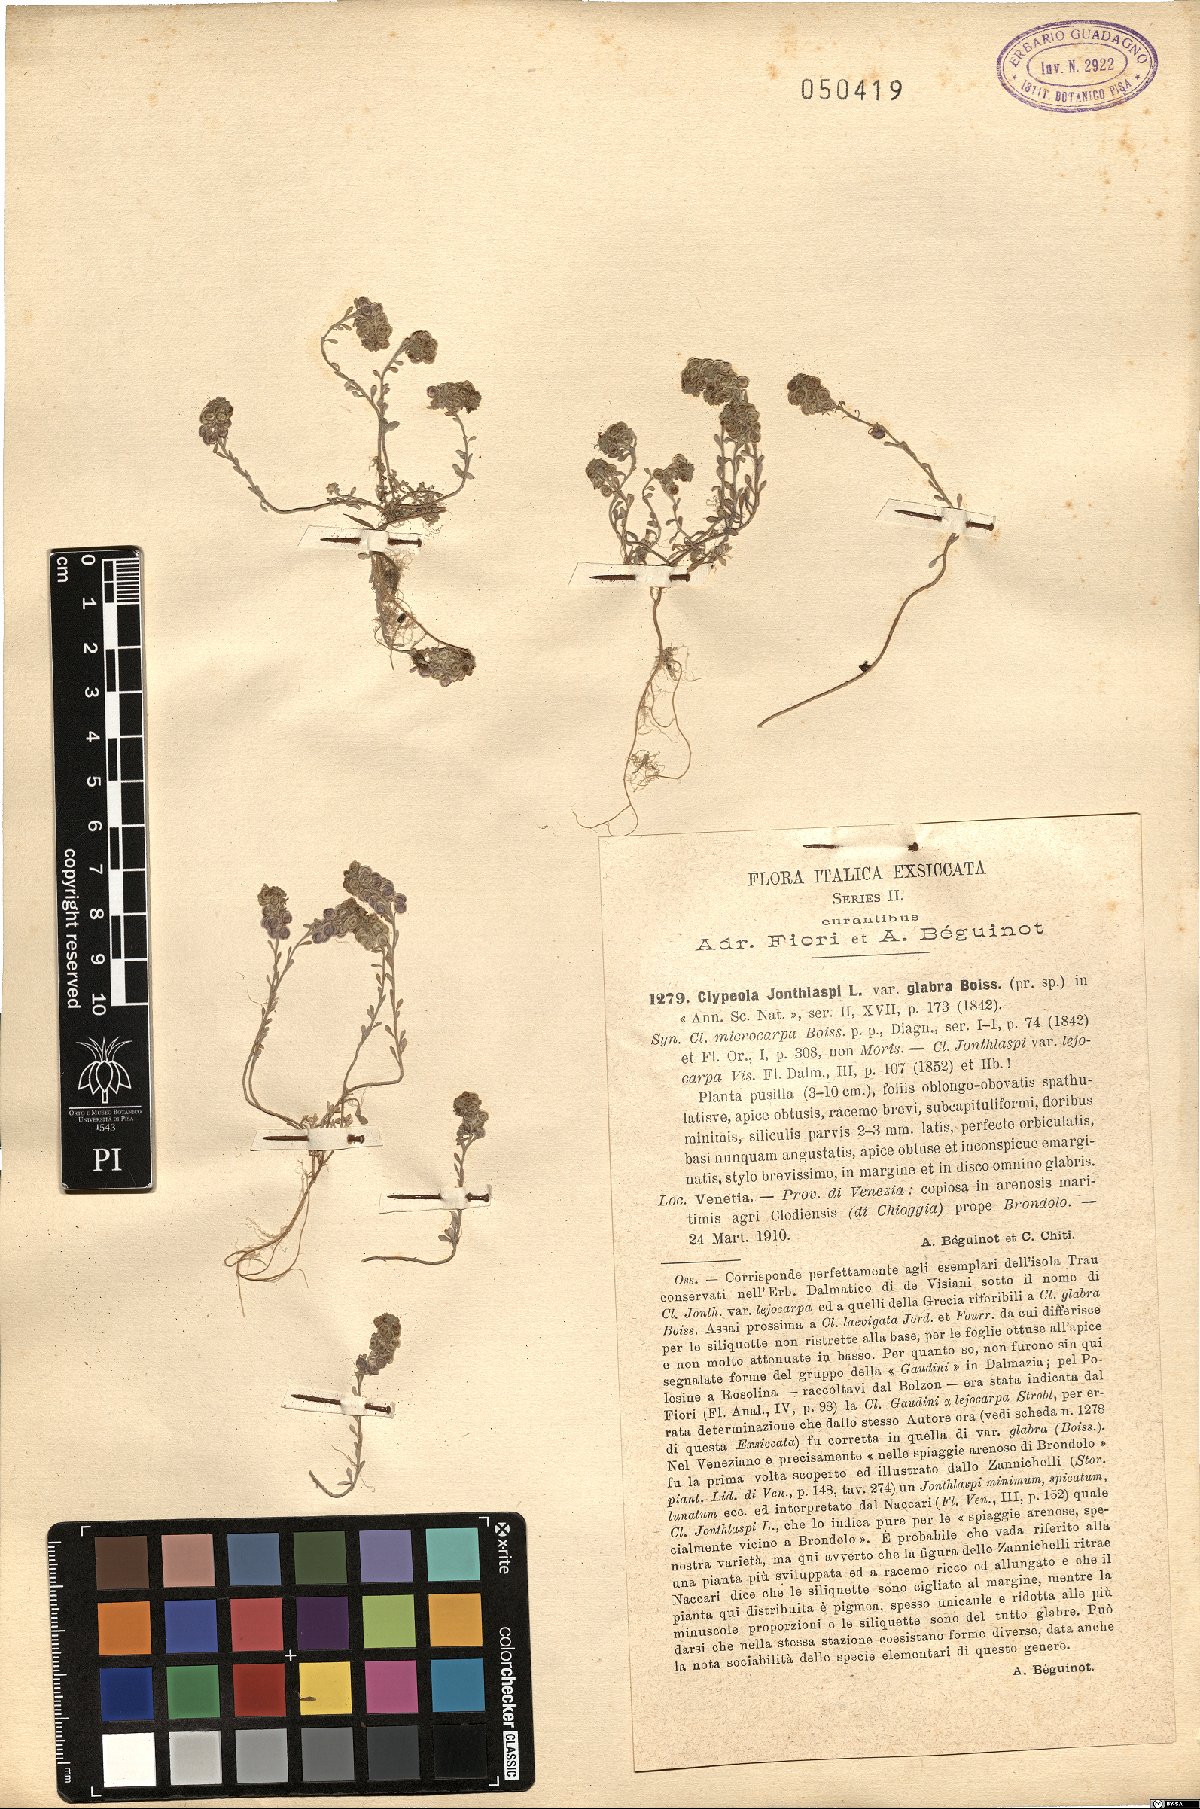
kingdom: Plantae
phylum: Tracheophyta
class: Magnoliopsida
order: Brassicales
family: Brassicaceae
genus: Clypeola
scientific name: Clypeola jonthlaspi
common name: Disk cress
